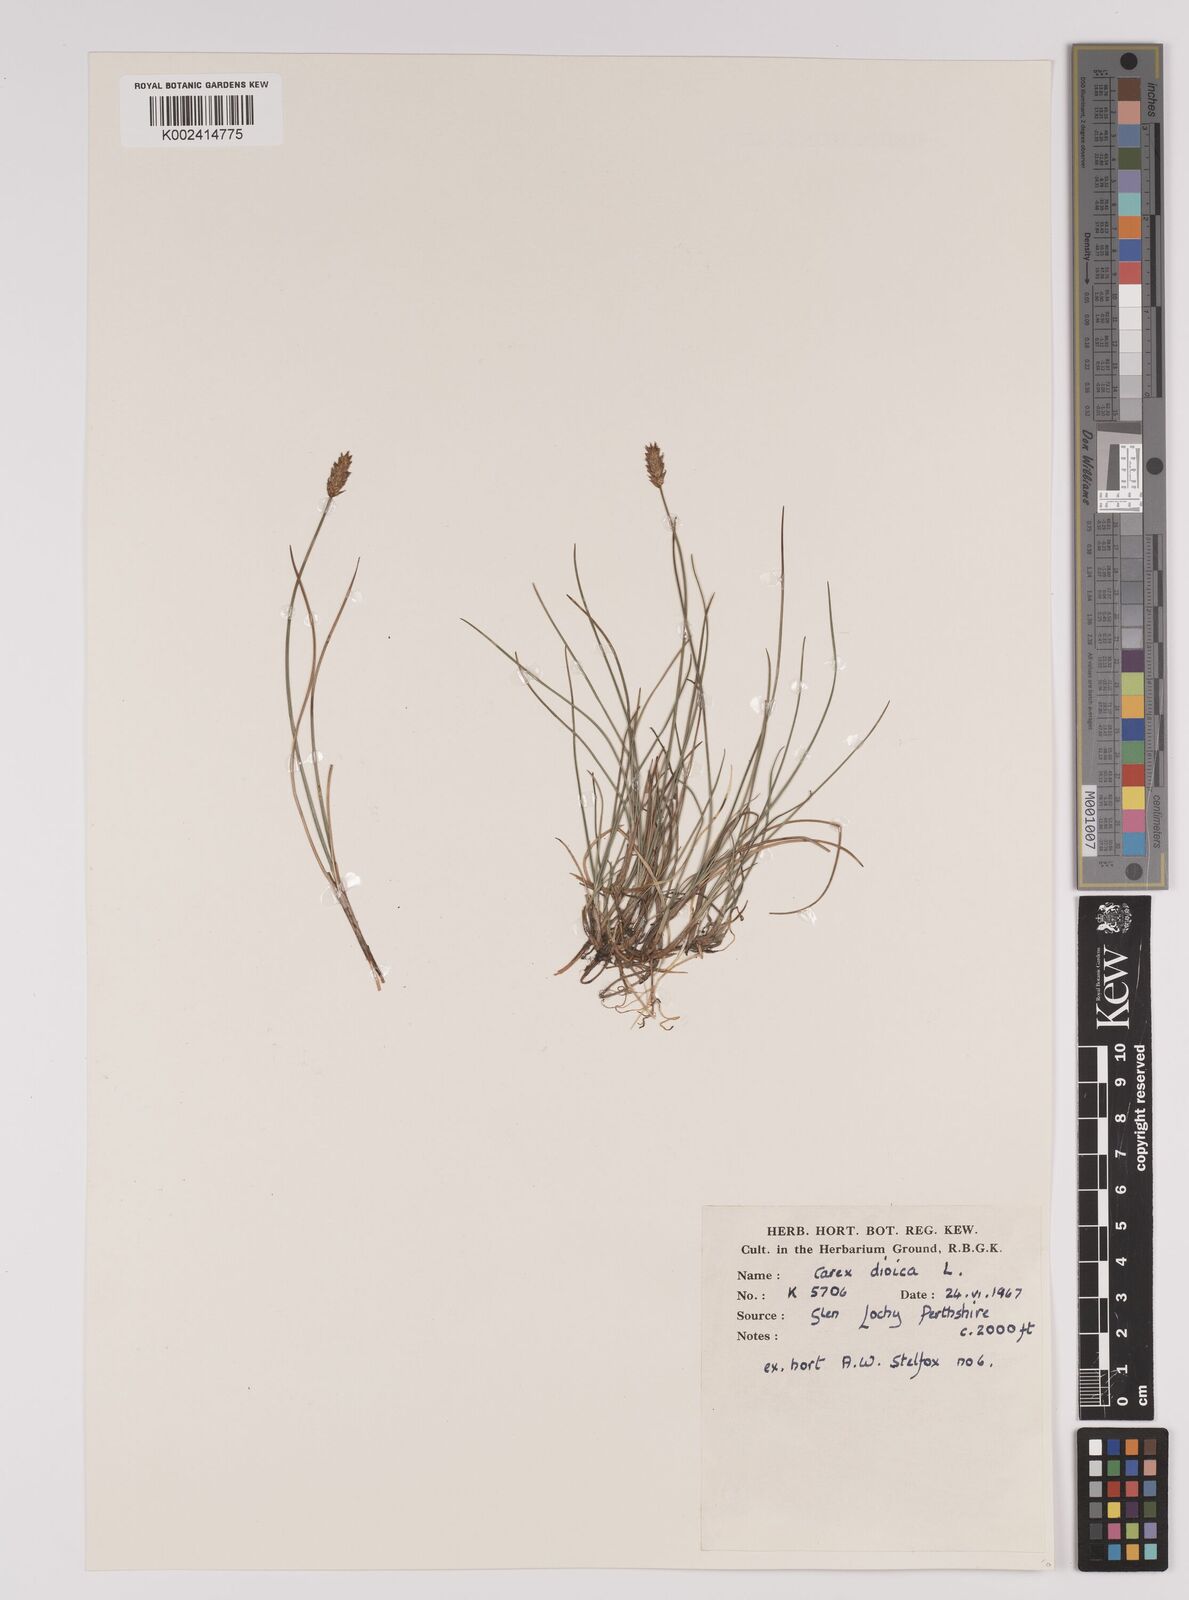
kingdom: Plantae
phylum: Tracheophyta
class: Liliopsida
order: Poales
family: Cyperaceae
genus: Carex
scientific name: Carex dioica
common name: Dioecious sedge
